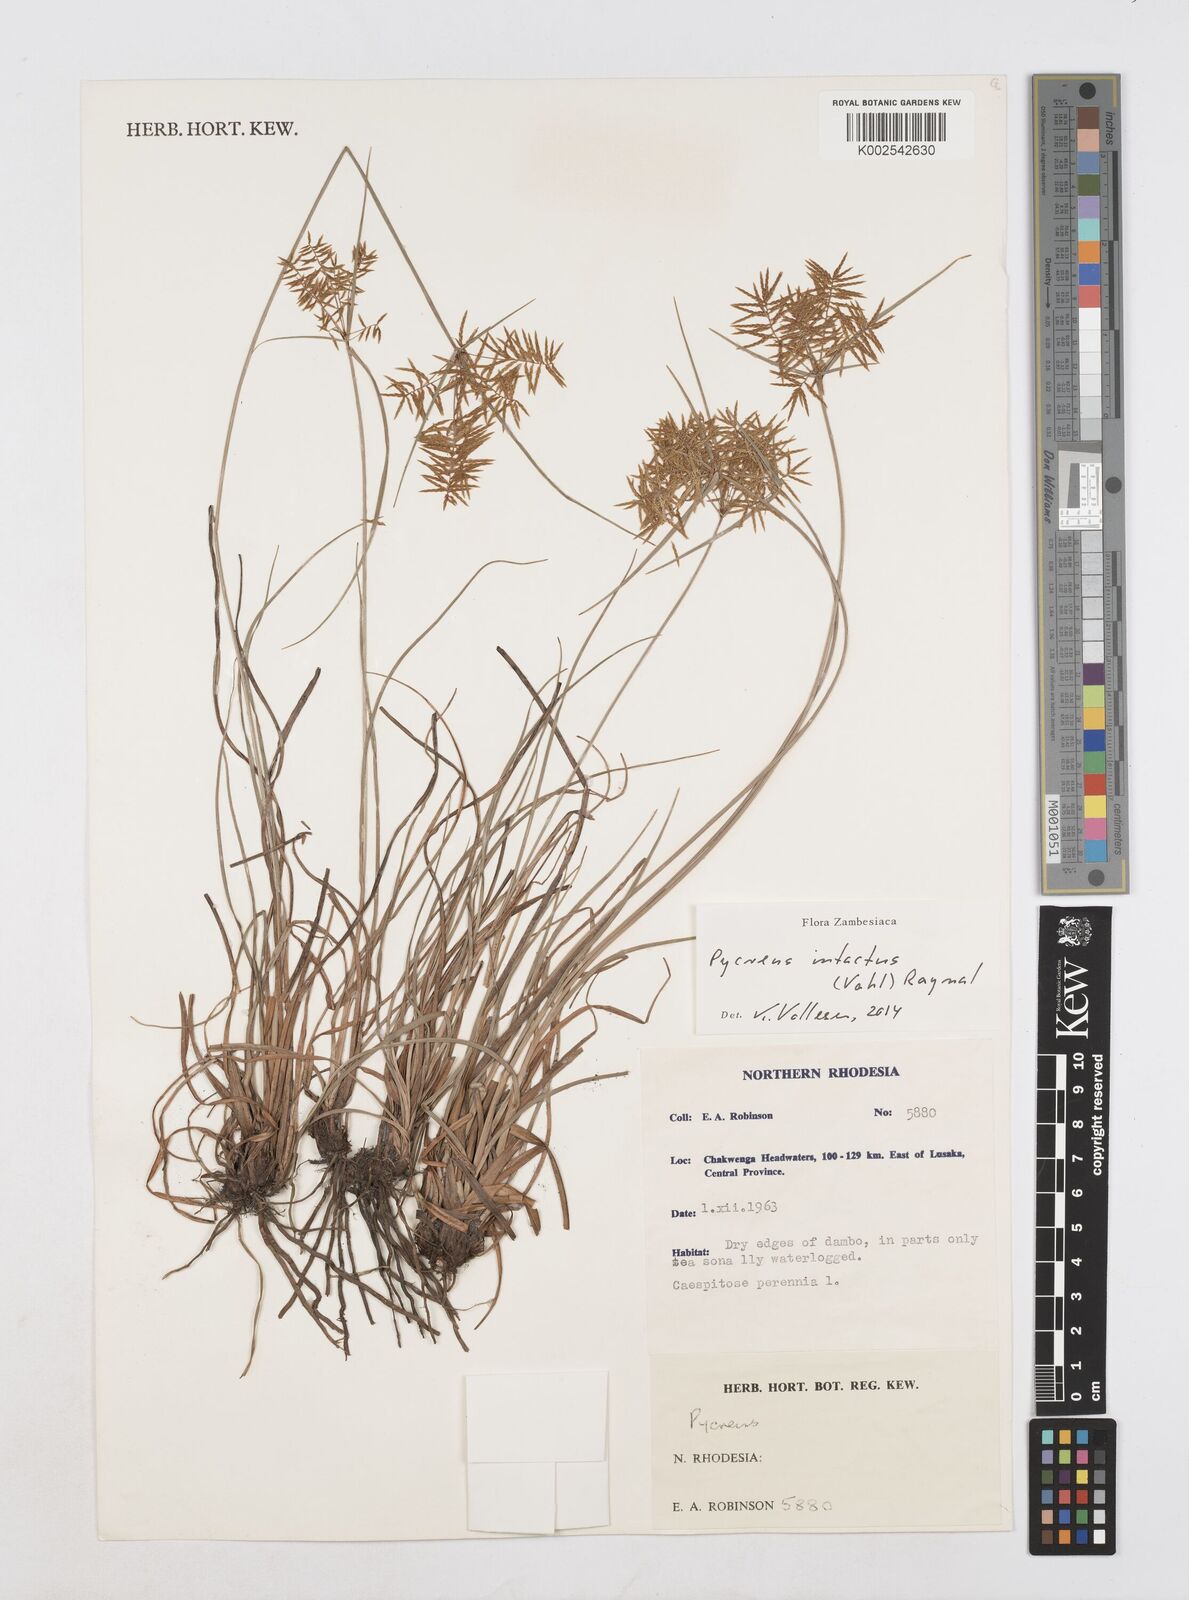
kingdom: Plantae
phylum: Tracheophyta
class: Liliopsida
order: Poales
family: Cyperaceae
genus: Cyperus
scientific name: Cyperus intactus
